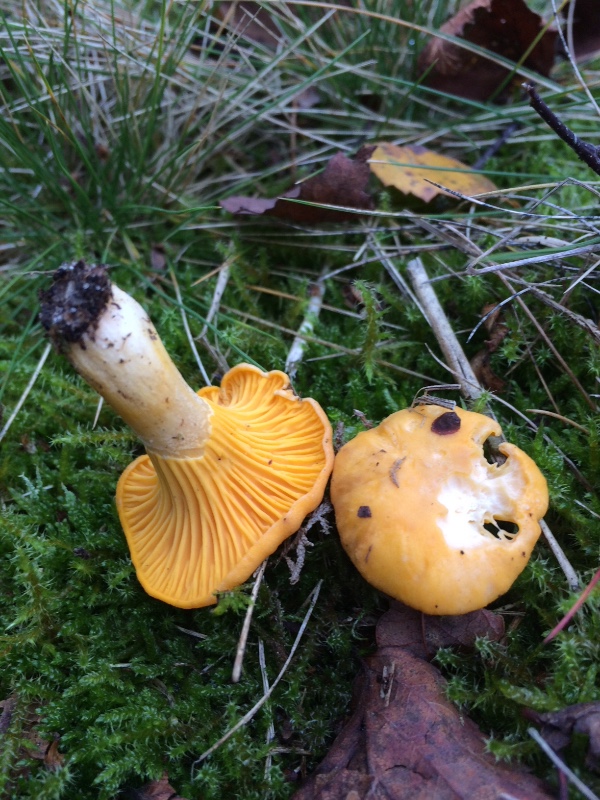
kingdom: Fungi
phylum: Basidiomycota
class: Agaricomycetes
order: Cantharellales
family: Hydnaceae
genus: Cantharellus
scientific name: Cantharellus cibarius
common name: almindelig kantarel
